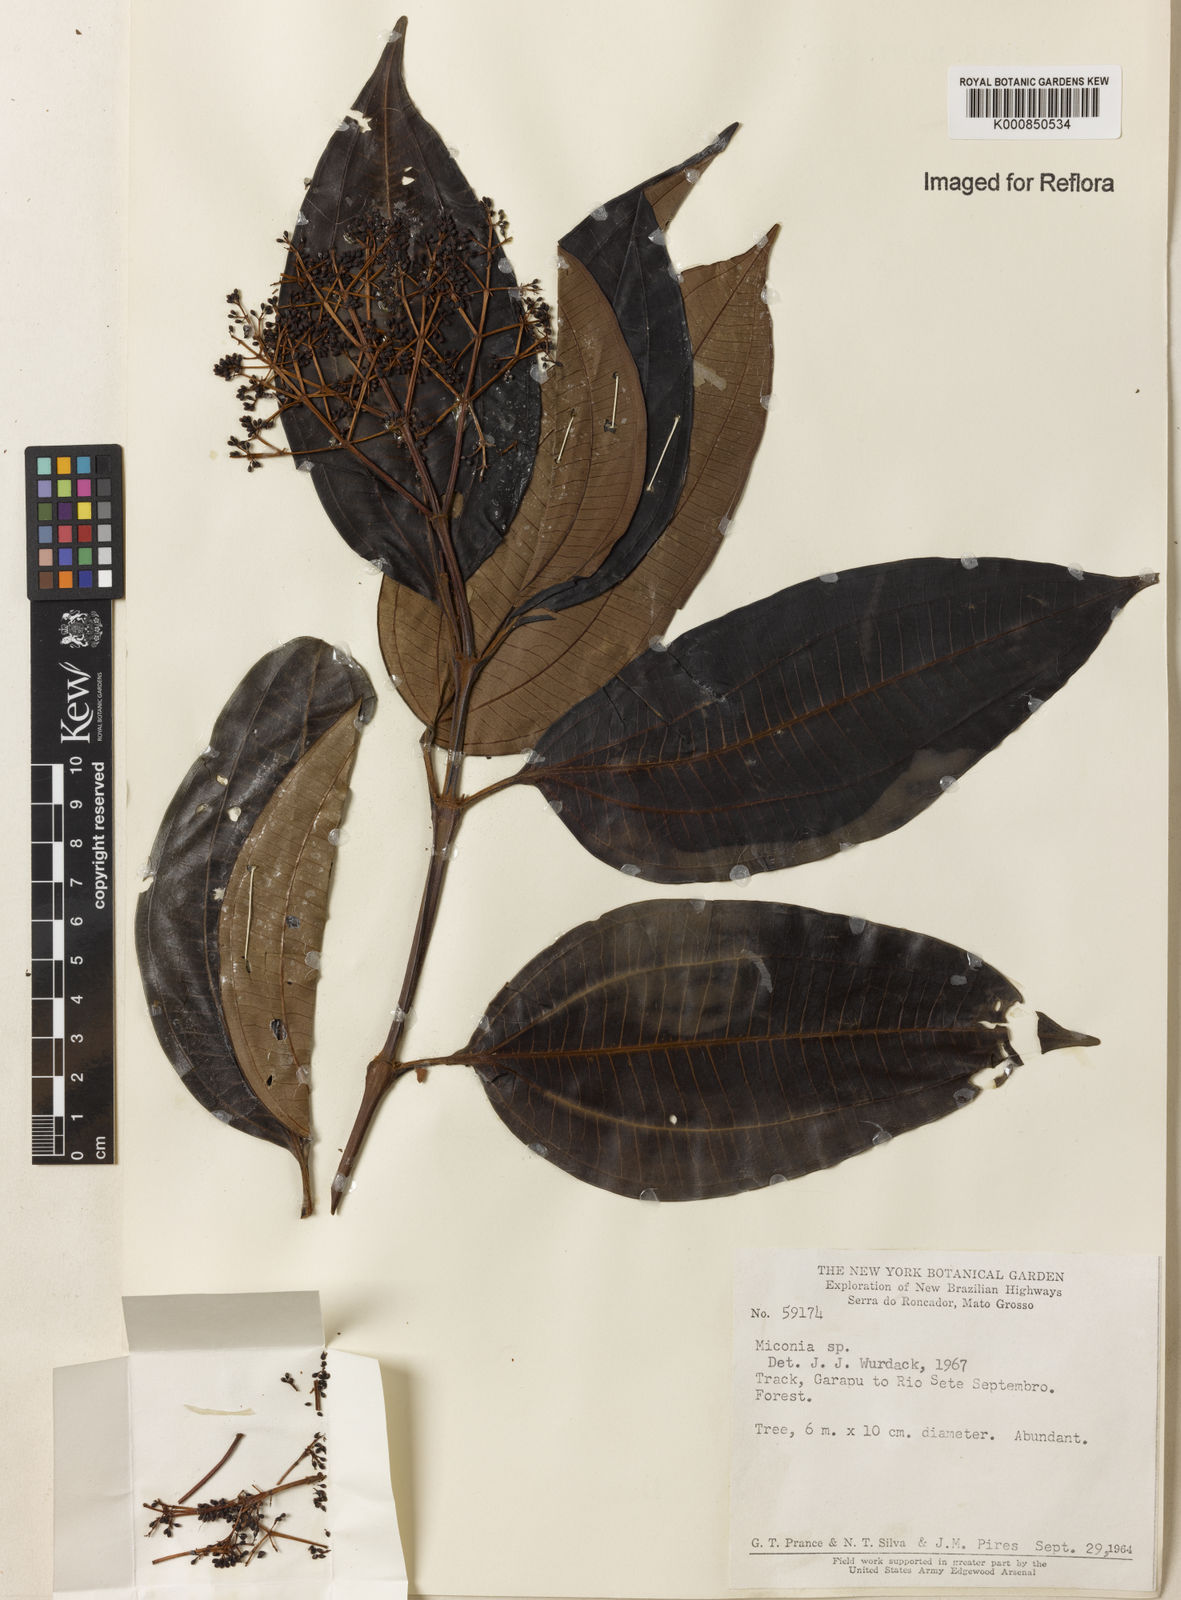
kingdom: Plantae
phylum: Tracheophyta
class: Magnoliopsida
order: Myrtales
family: Melastomataceae
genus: Miconia
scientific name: Miconia
